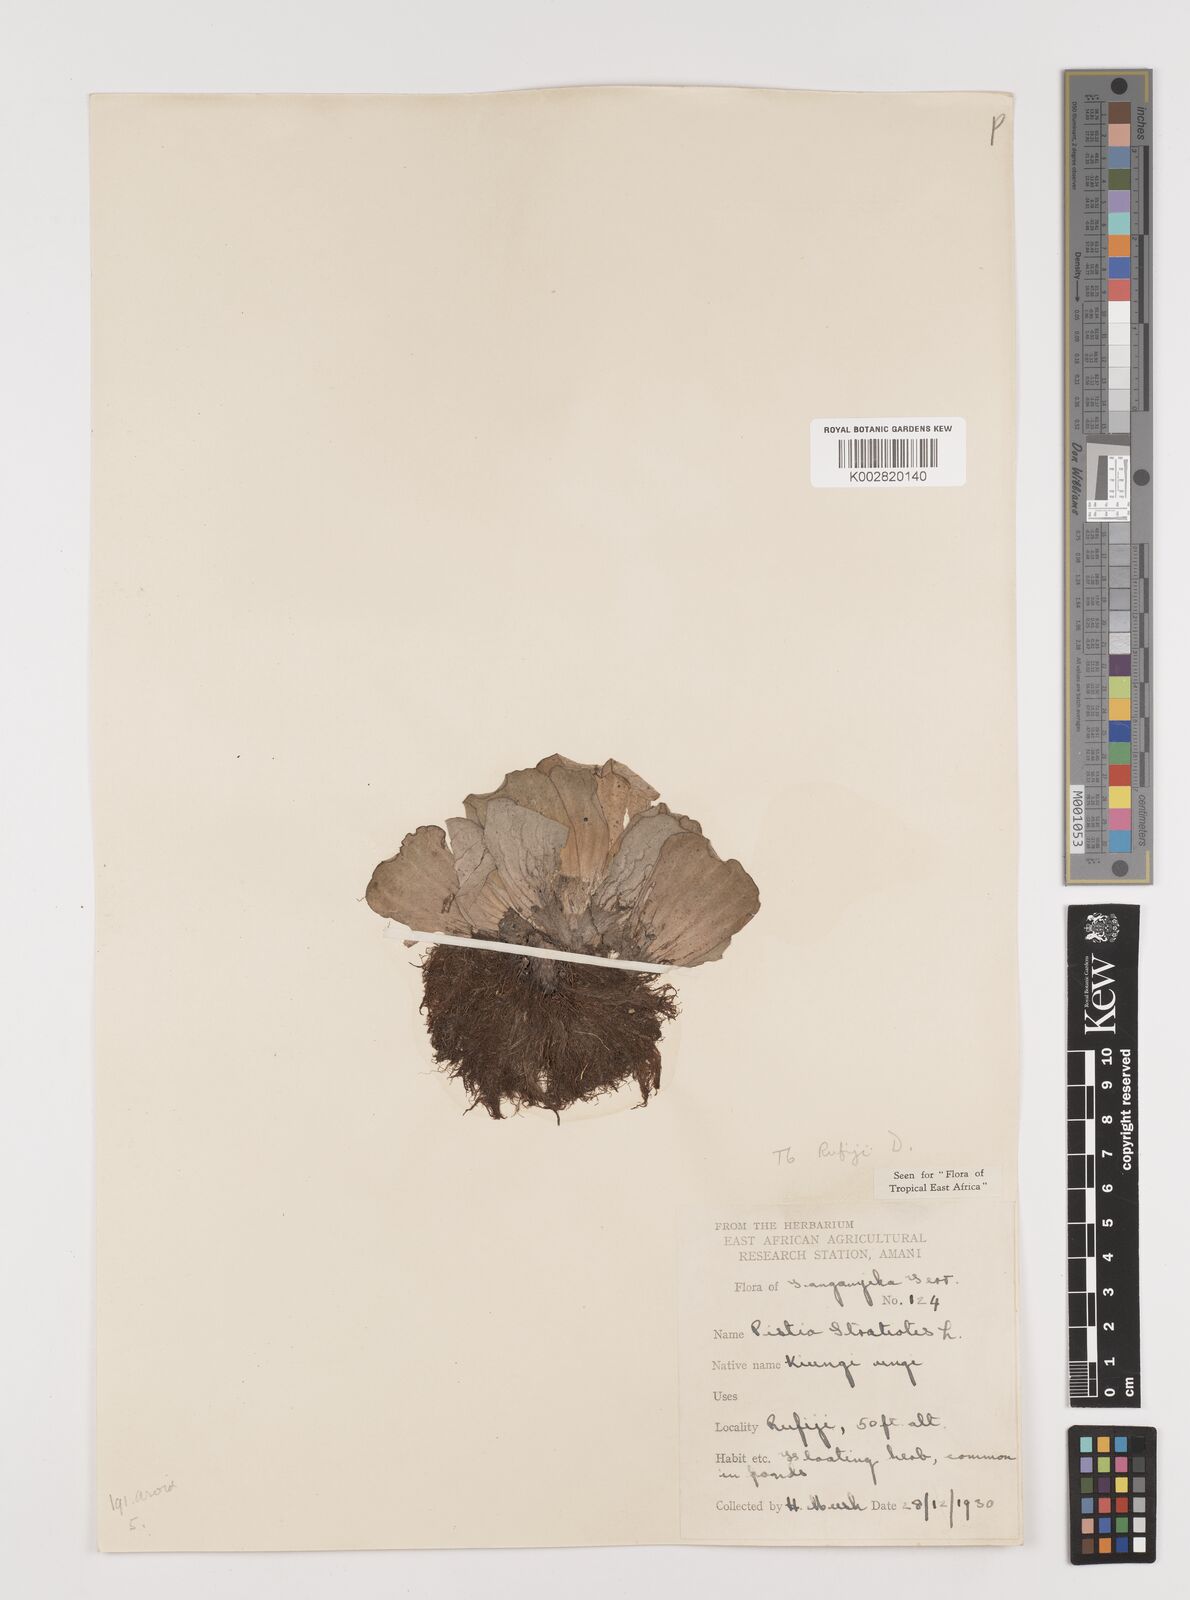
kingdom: Plantae
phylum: Tracheophyta
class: Liliopsida
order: Alismatales
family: Araceae
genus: Pistia
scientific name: Pistia stratiotes
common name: Water lettuce
